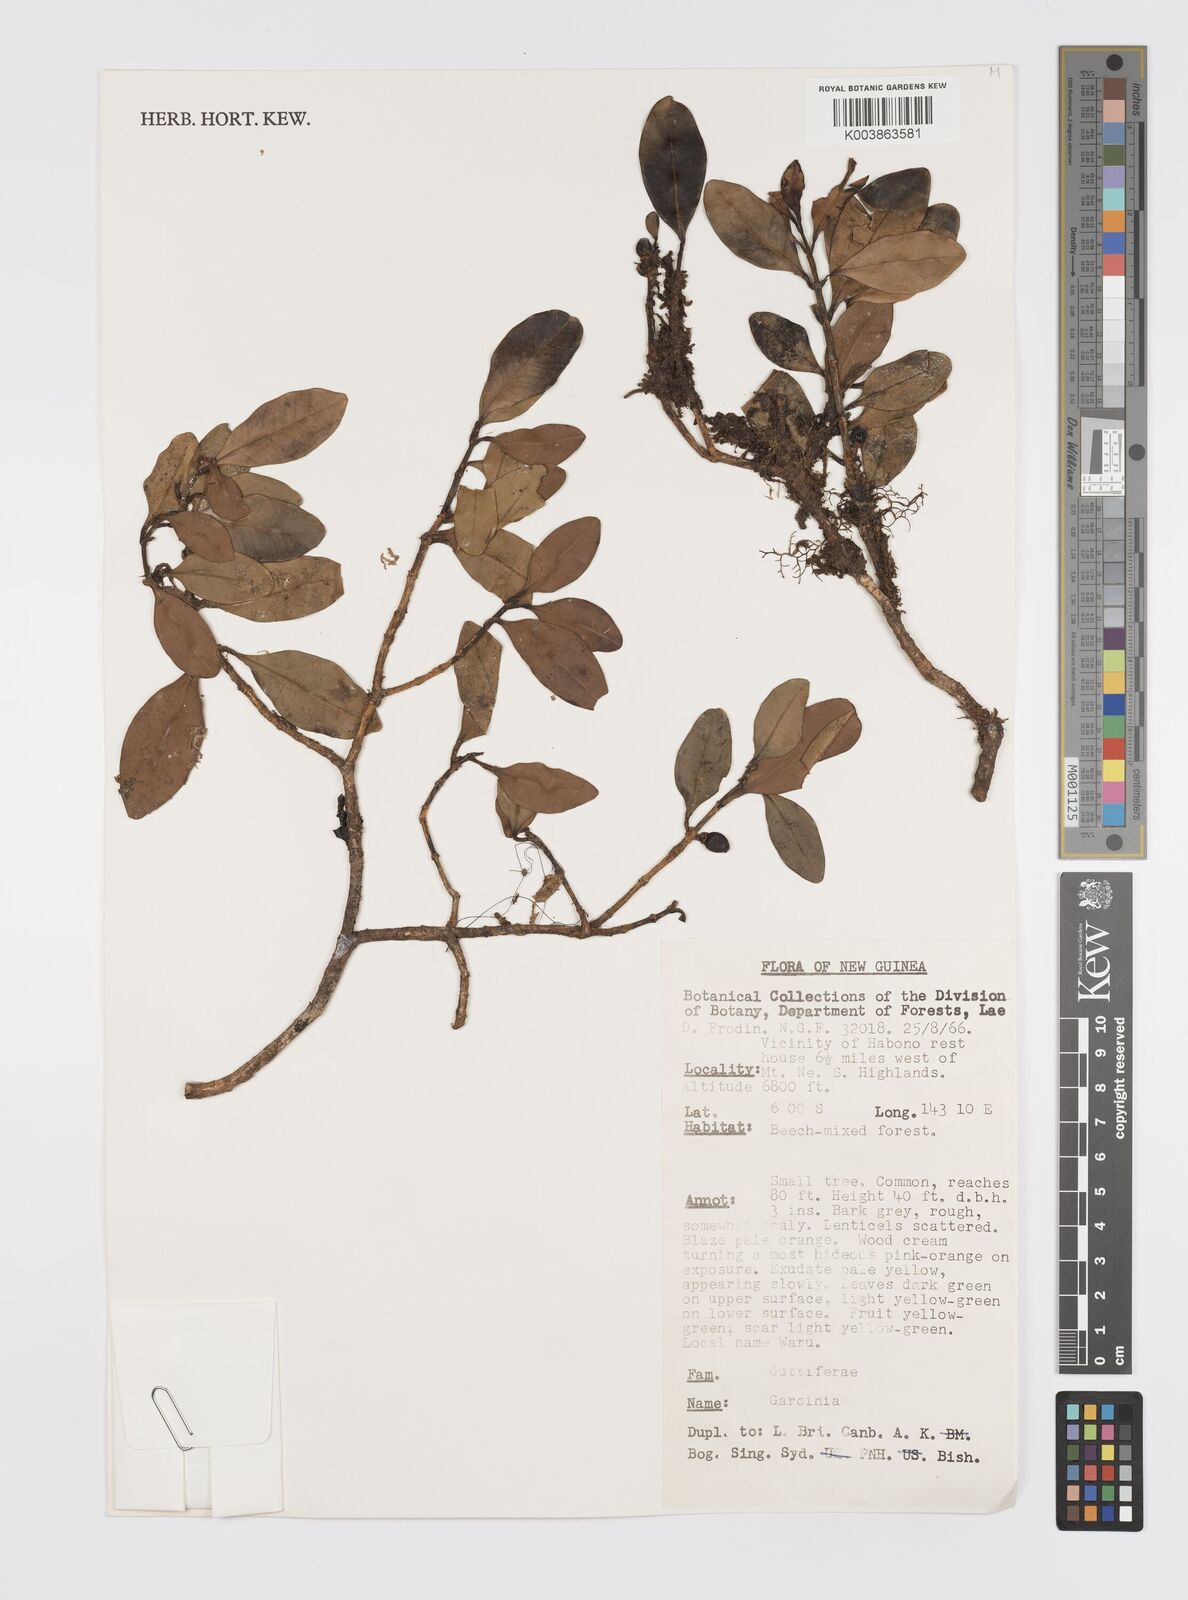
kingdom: Plantae
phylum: Tracheophyta
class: Magnoliopsida
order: Malpighiales
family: Clusiaceae
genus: Garcinia
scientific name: Garcinia
